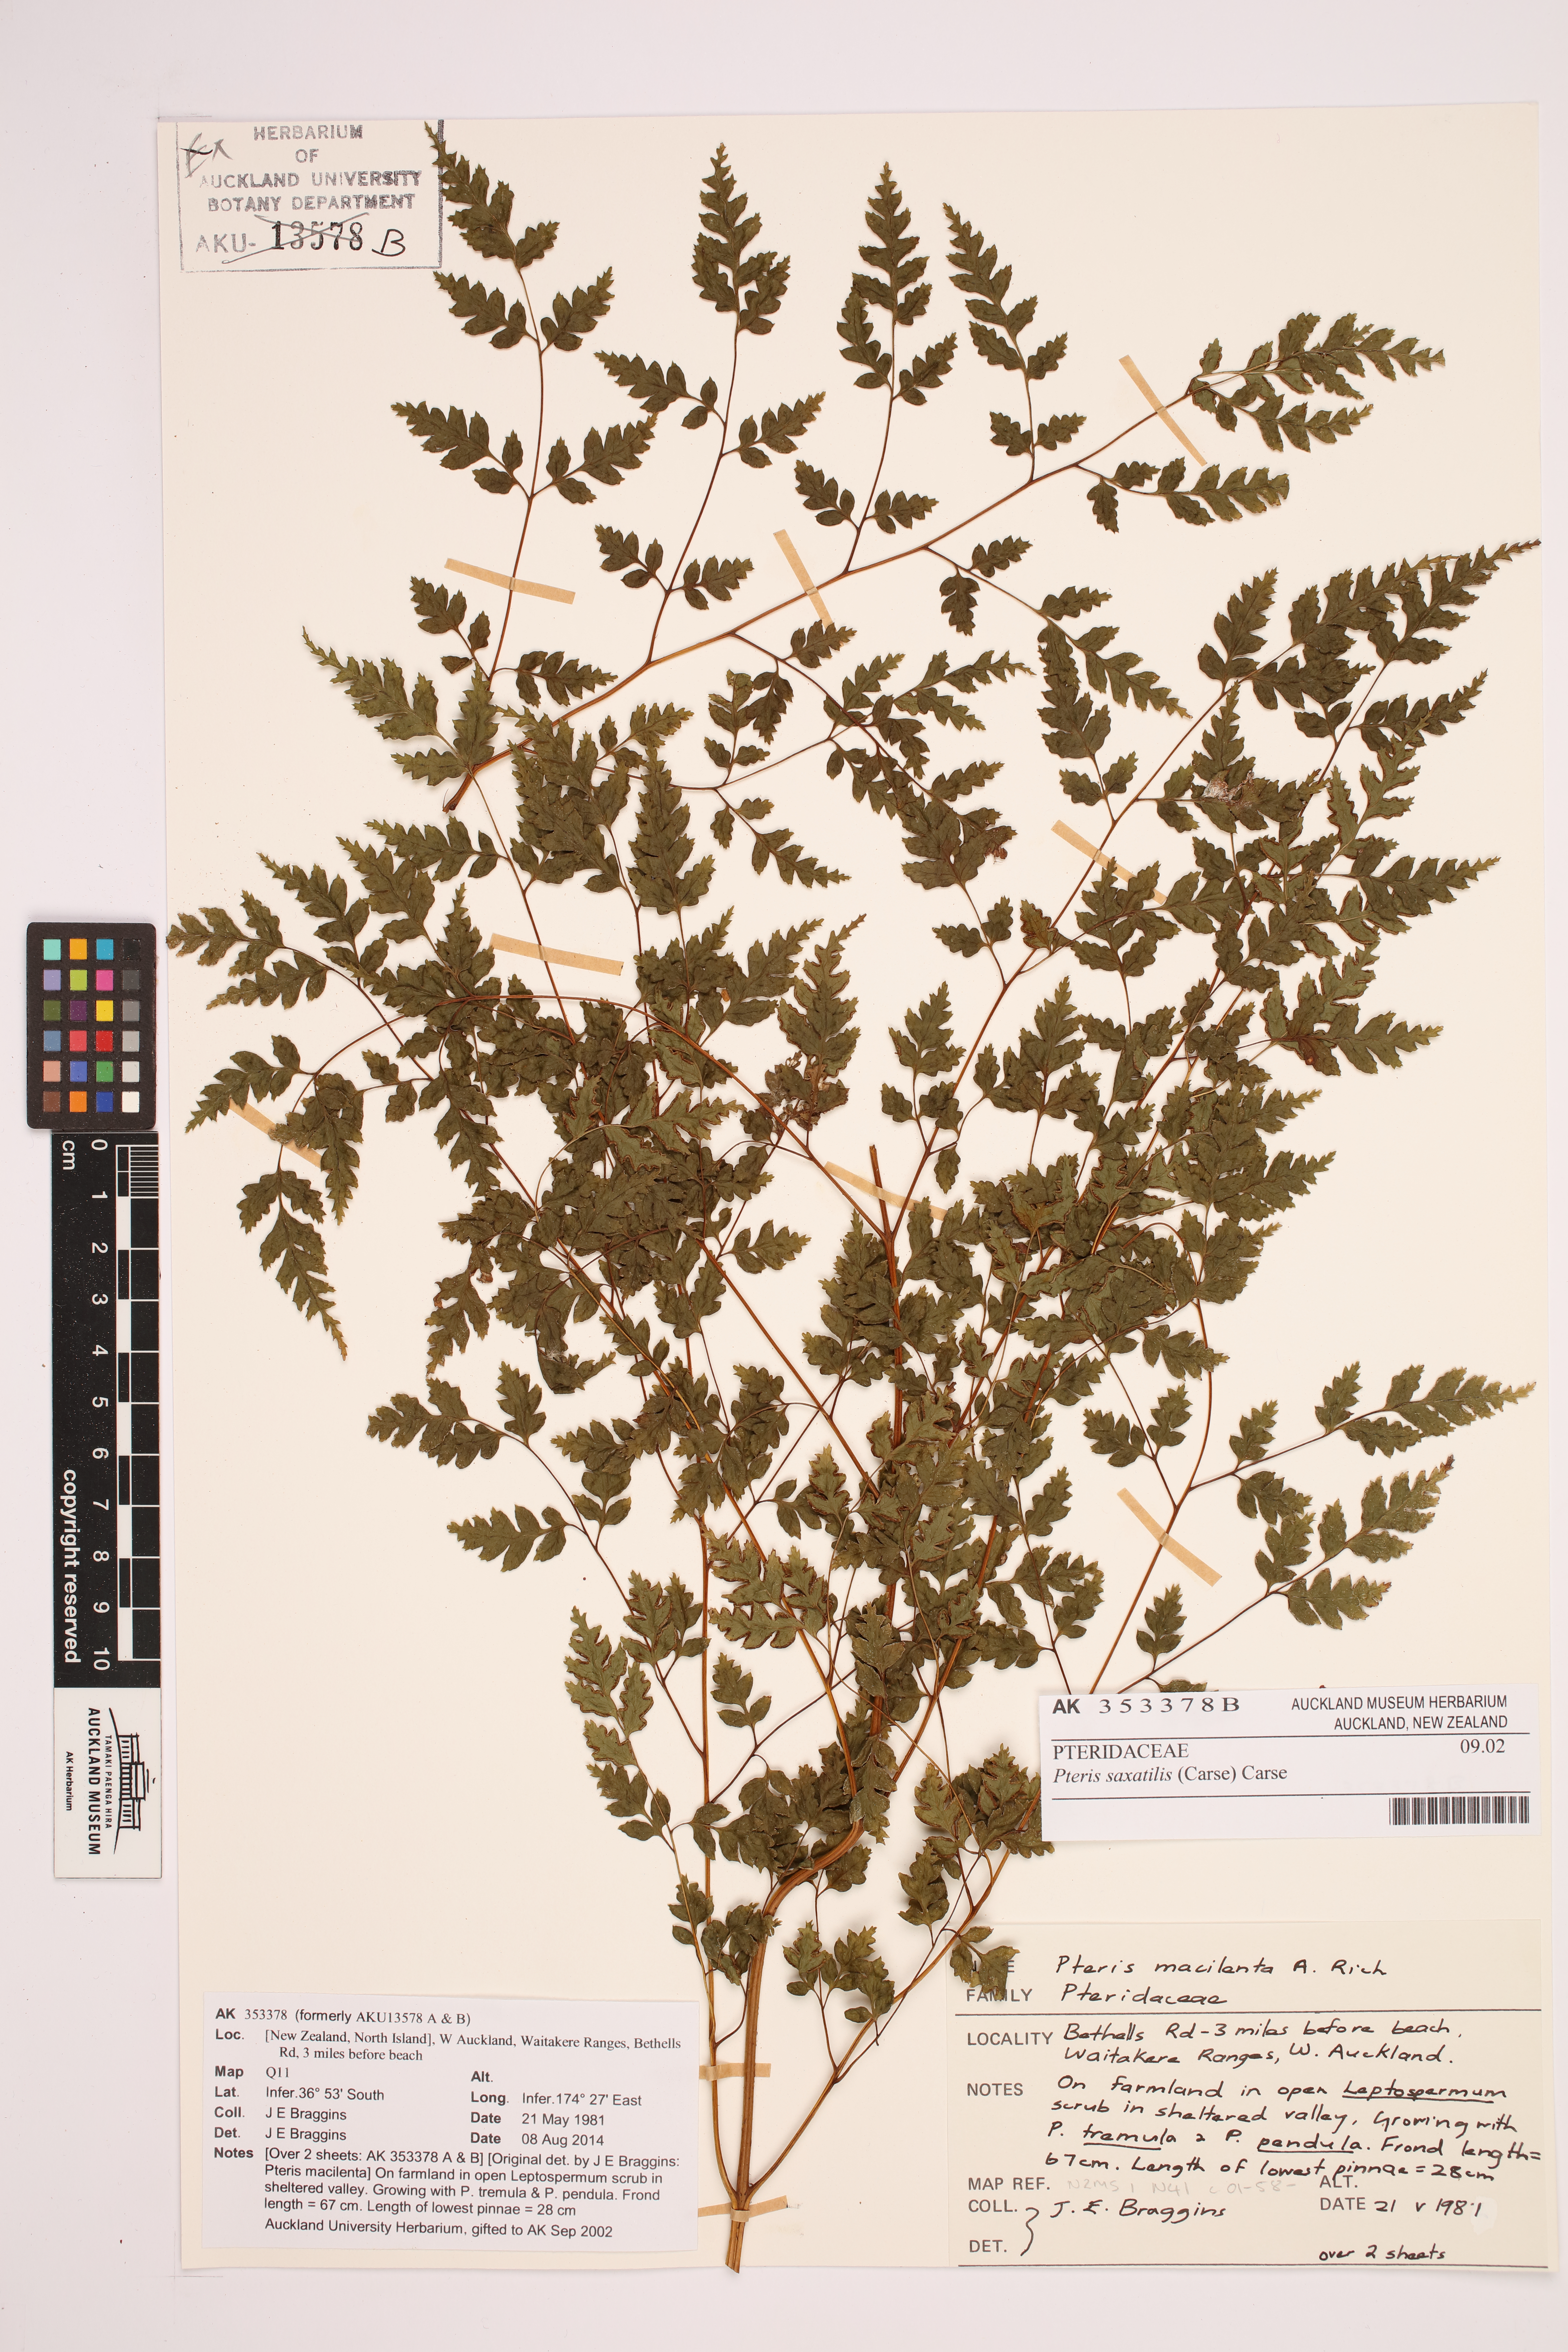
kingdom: Plantae
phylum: Tracheophyta
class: Polypodiopsida
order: Polypodiales
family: Pteridaceae
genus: Pteris
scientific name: Pteris saxatilis
